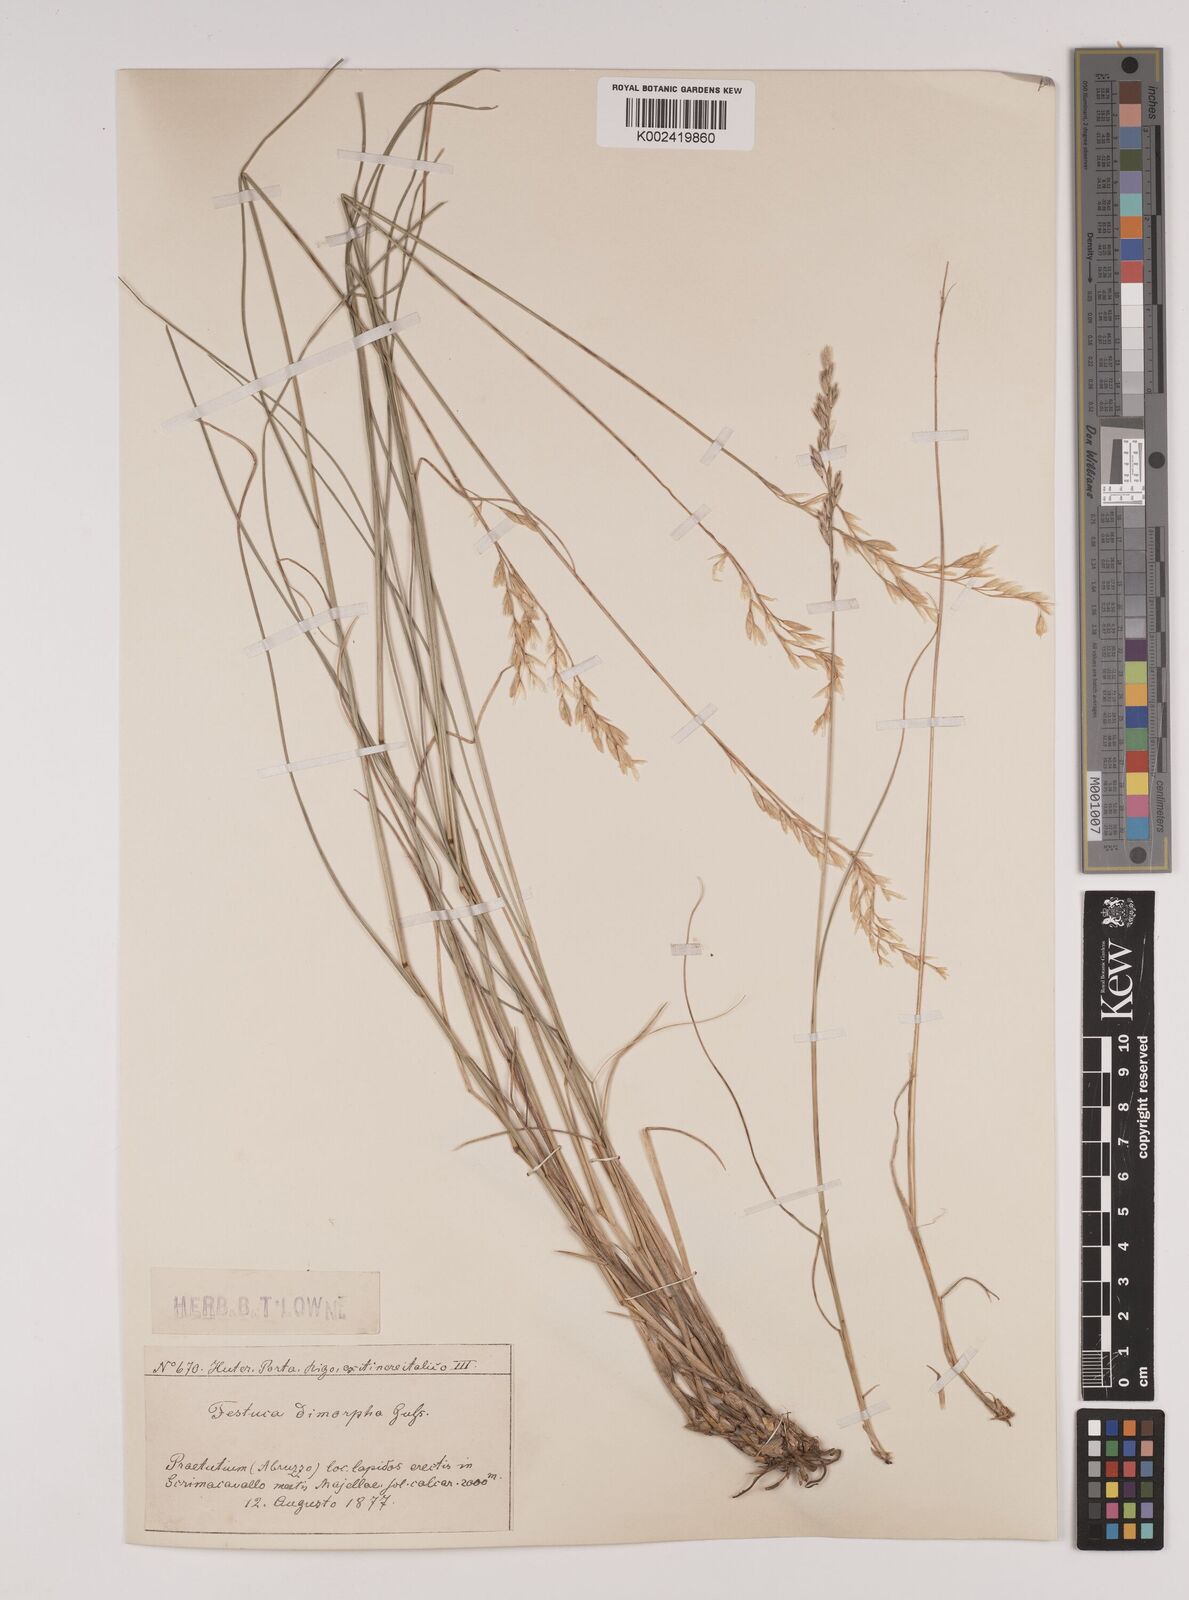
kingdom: Plantae
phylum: Tracheophyta
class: Liliopsida
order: Poales
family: Poaceae
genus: Festuca
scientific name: Festuca dimorpha
